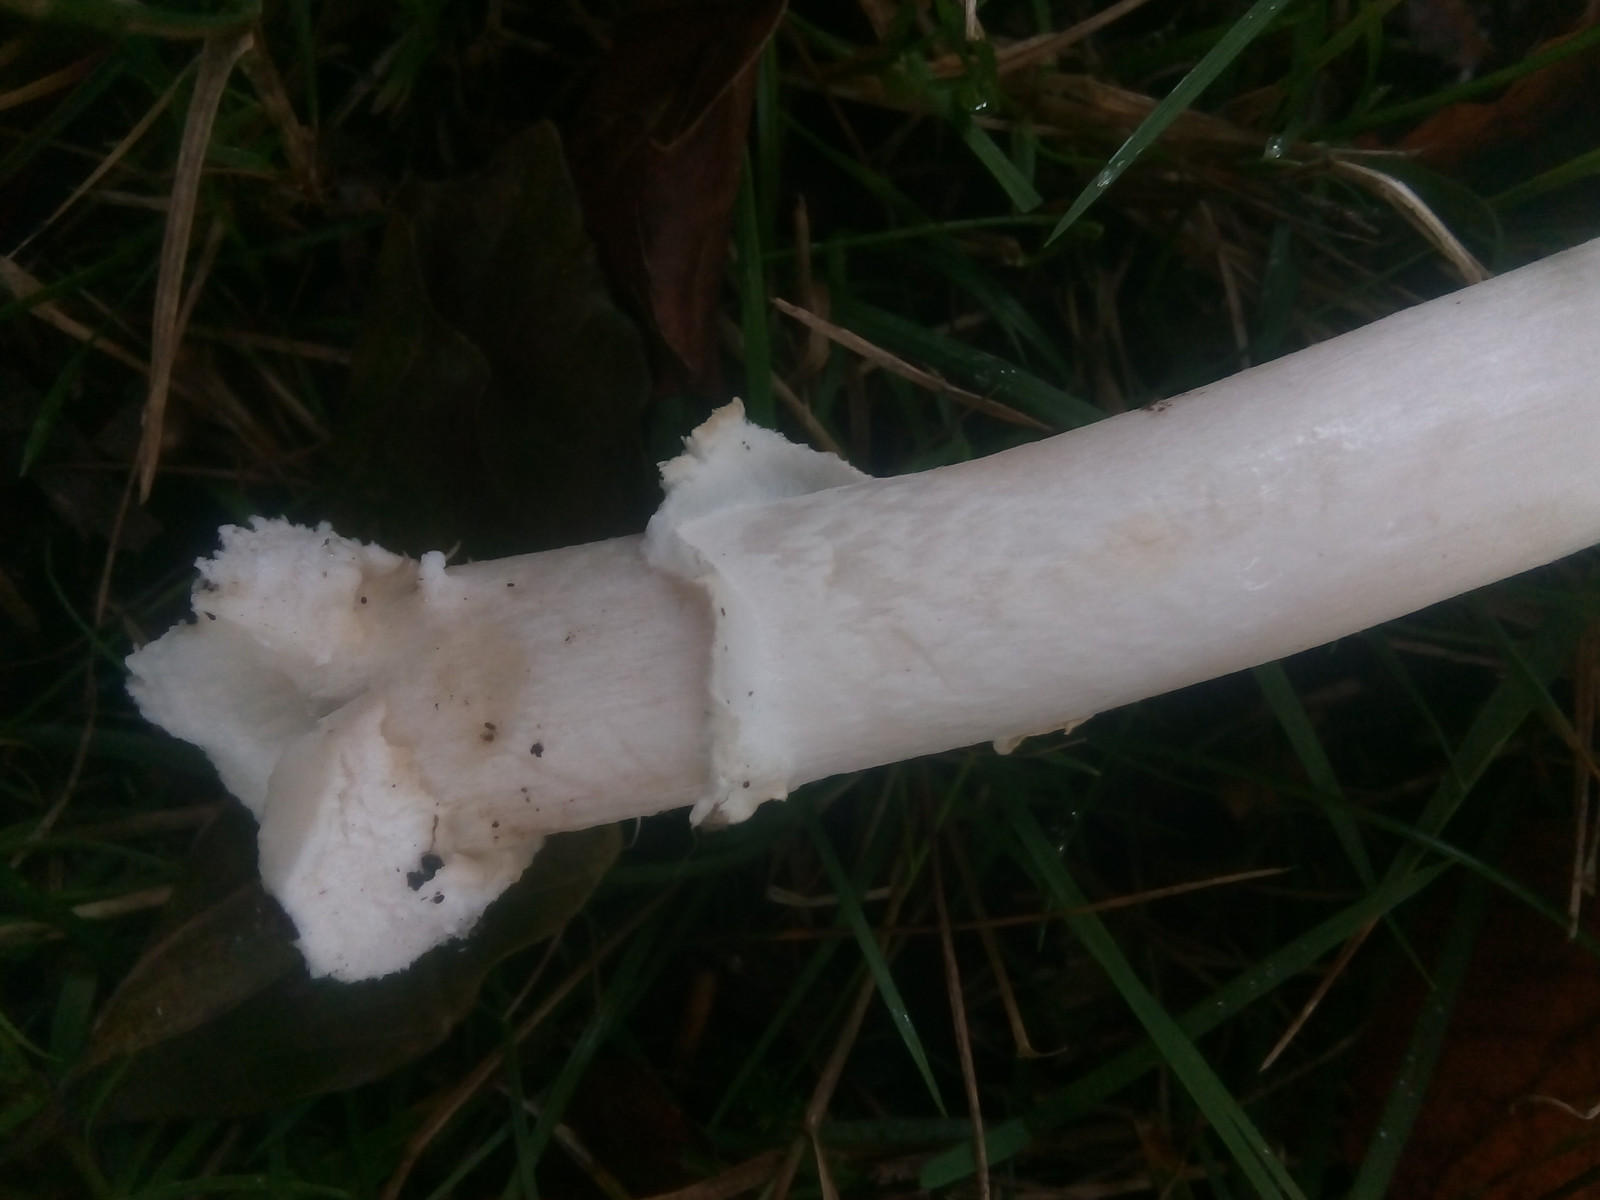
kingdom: Fungi
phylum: Basidiomycota
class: Agaricomycetes
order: Agaricales
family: Amanitaceae
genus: Amanita
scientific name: Amanita pantherina
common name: panter-fluesvamp
